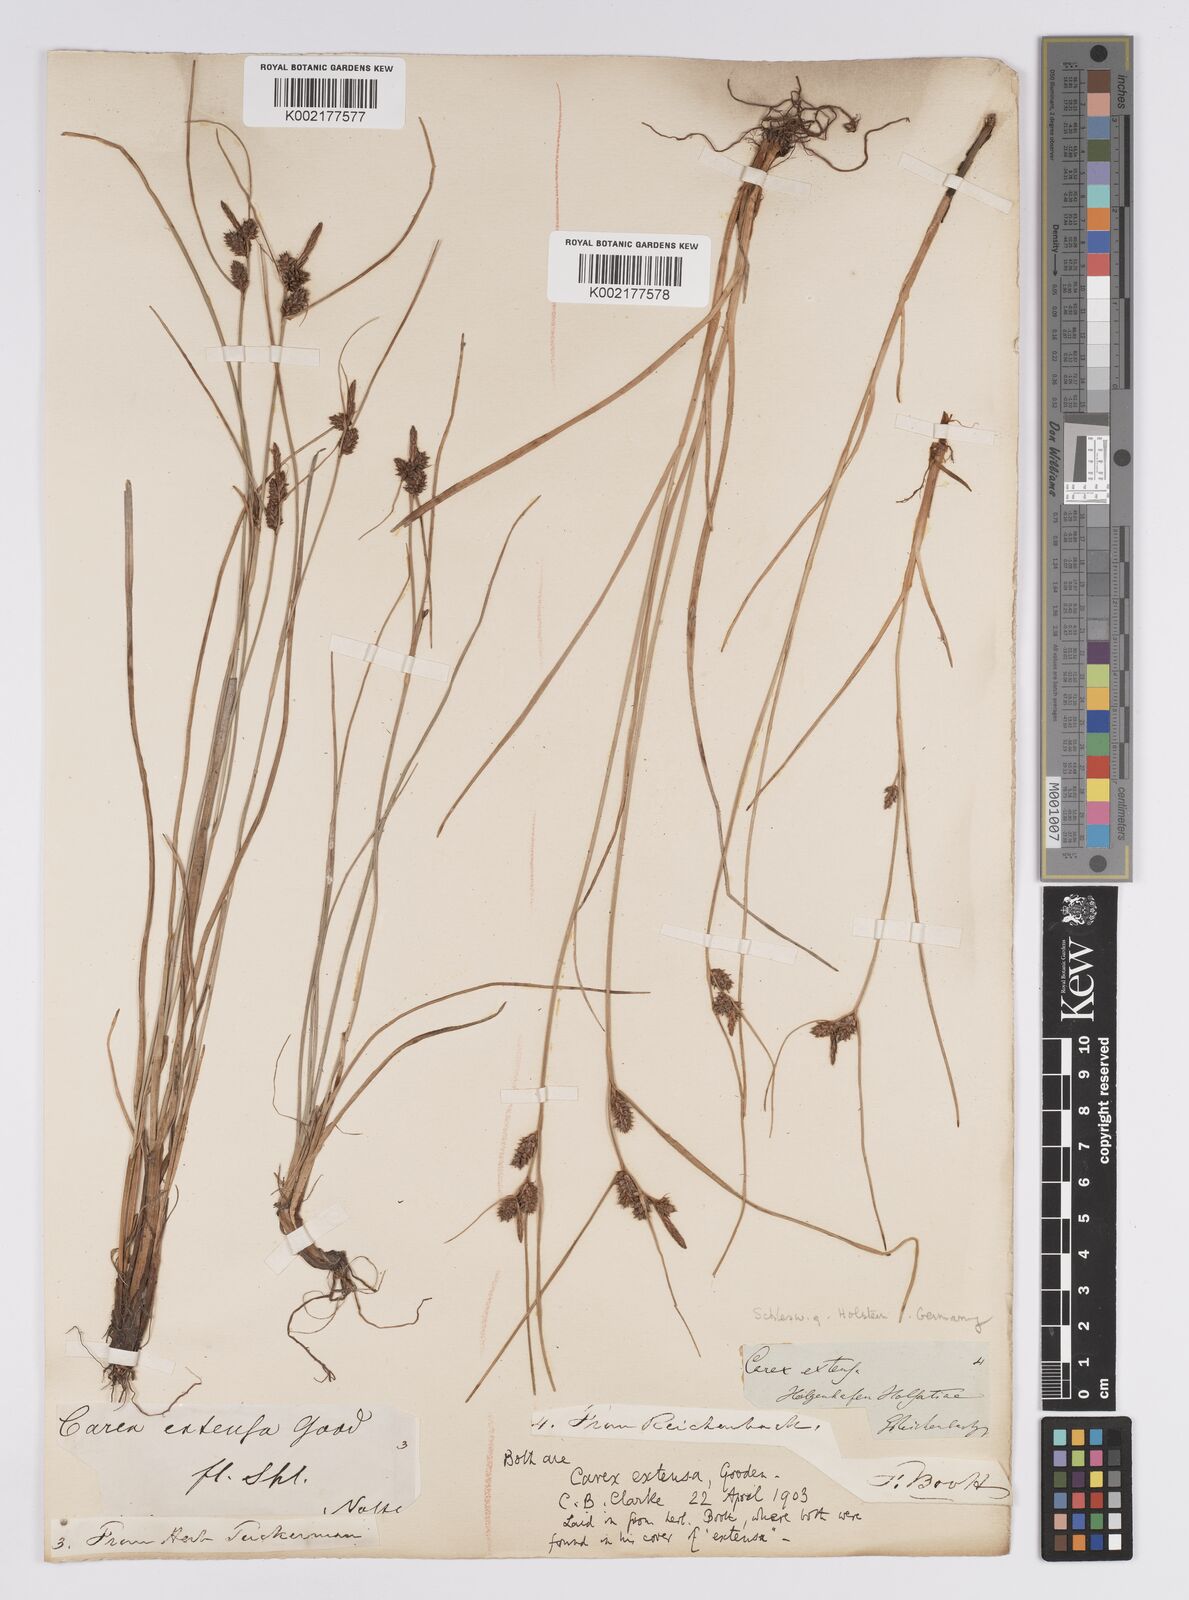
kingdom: Plantae
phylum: Tracheophyta
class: Liliopsida
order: Poales
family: Cyperaceae
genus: Carex
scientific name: Carex extensa
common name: Long-bracted sedge
